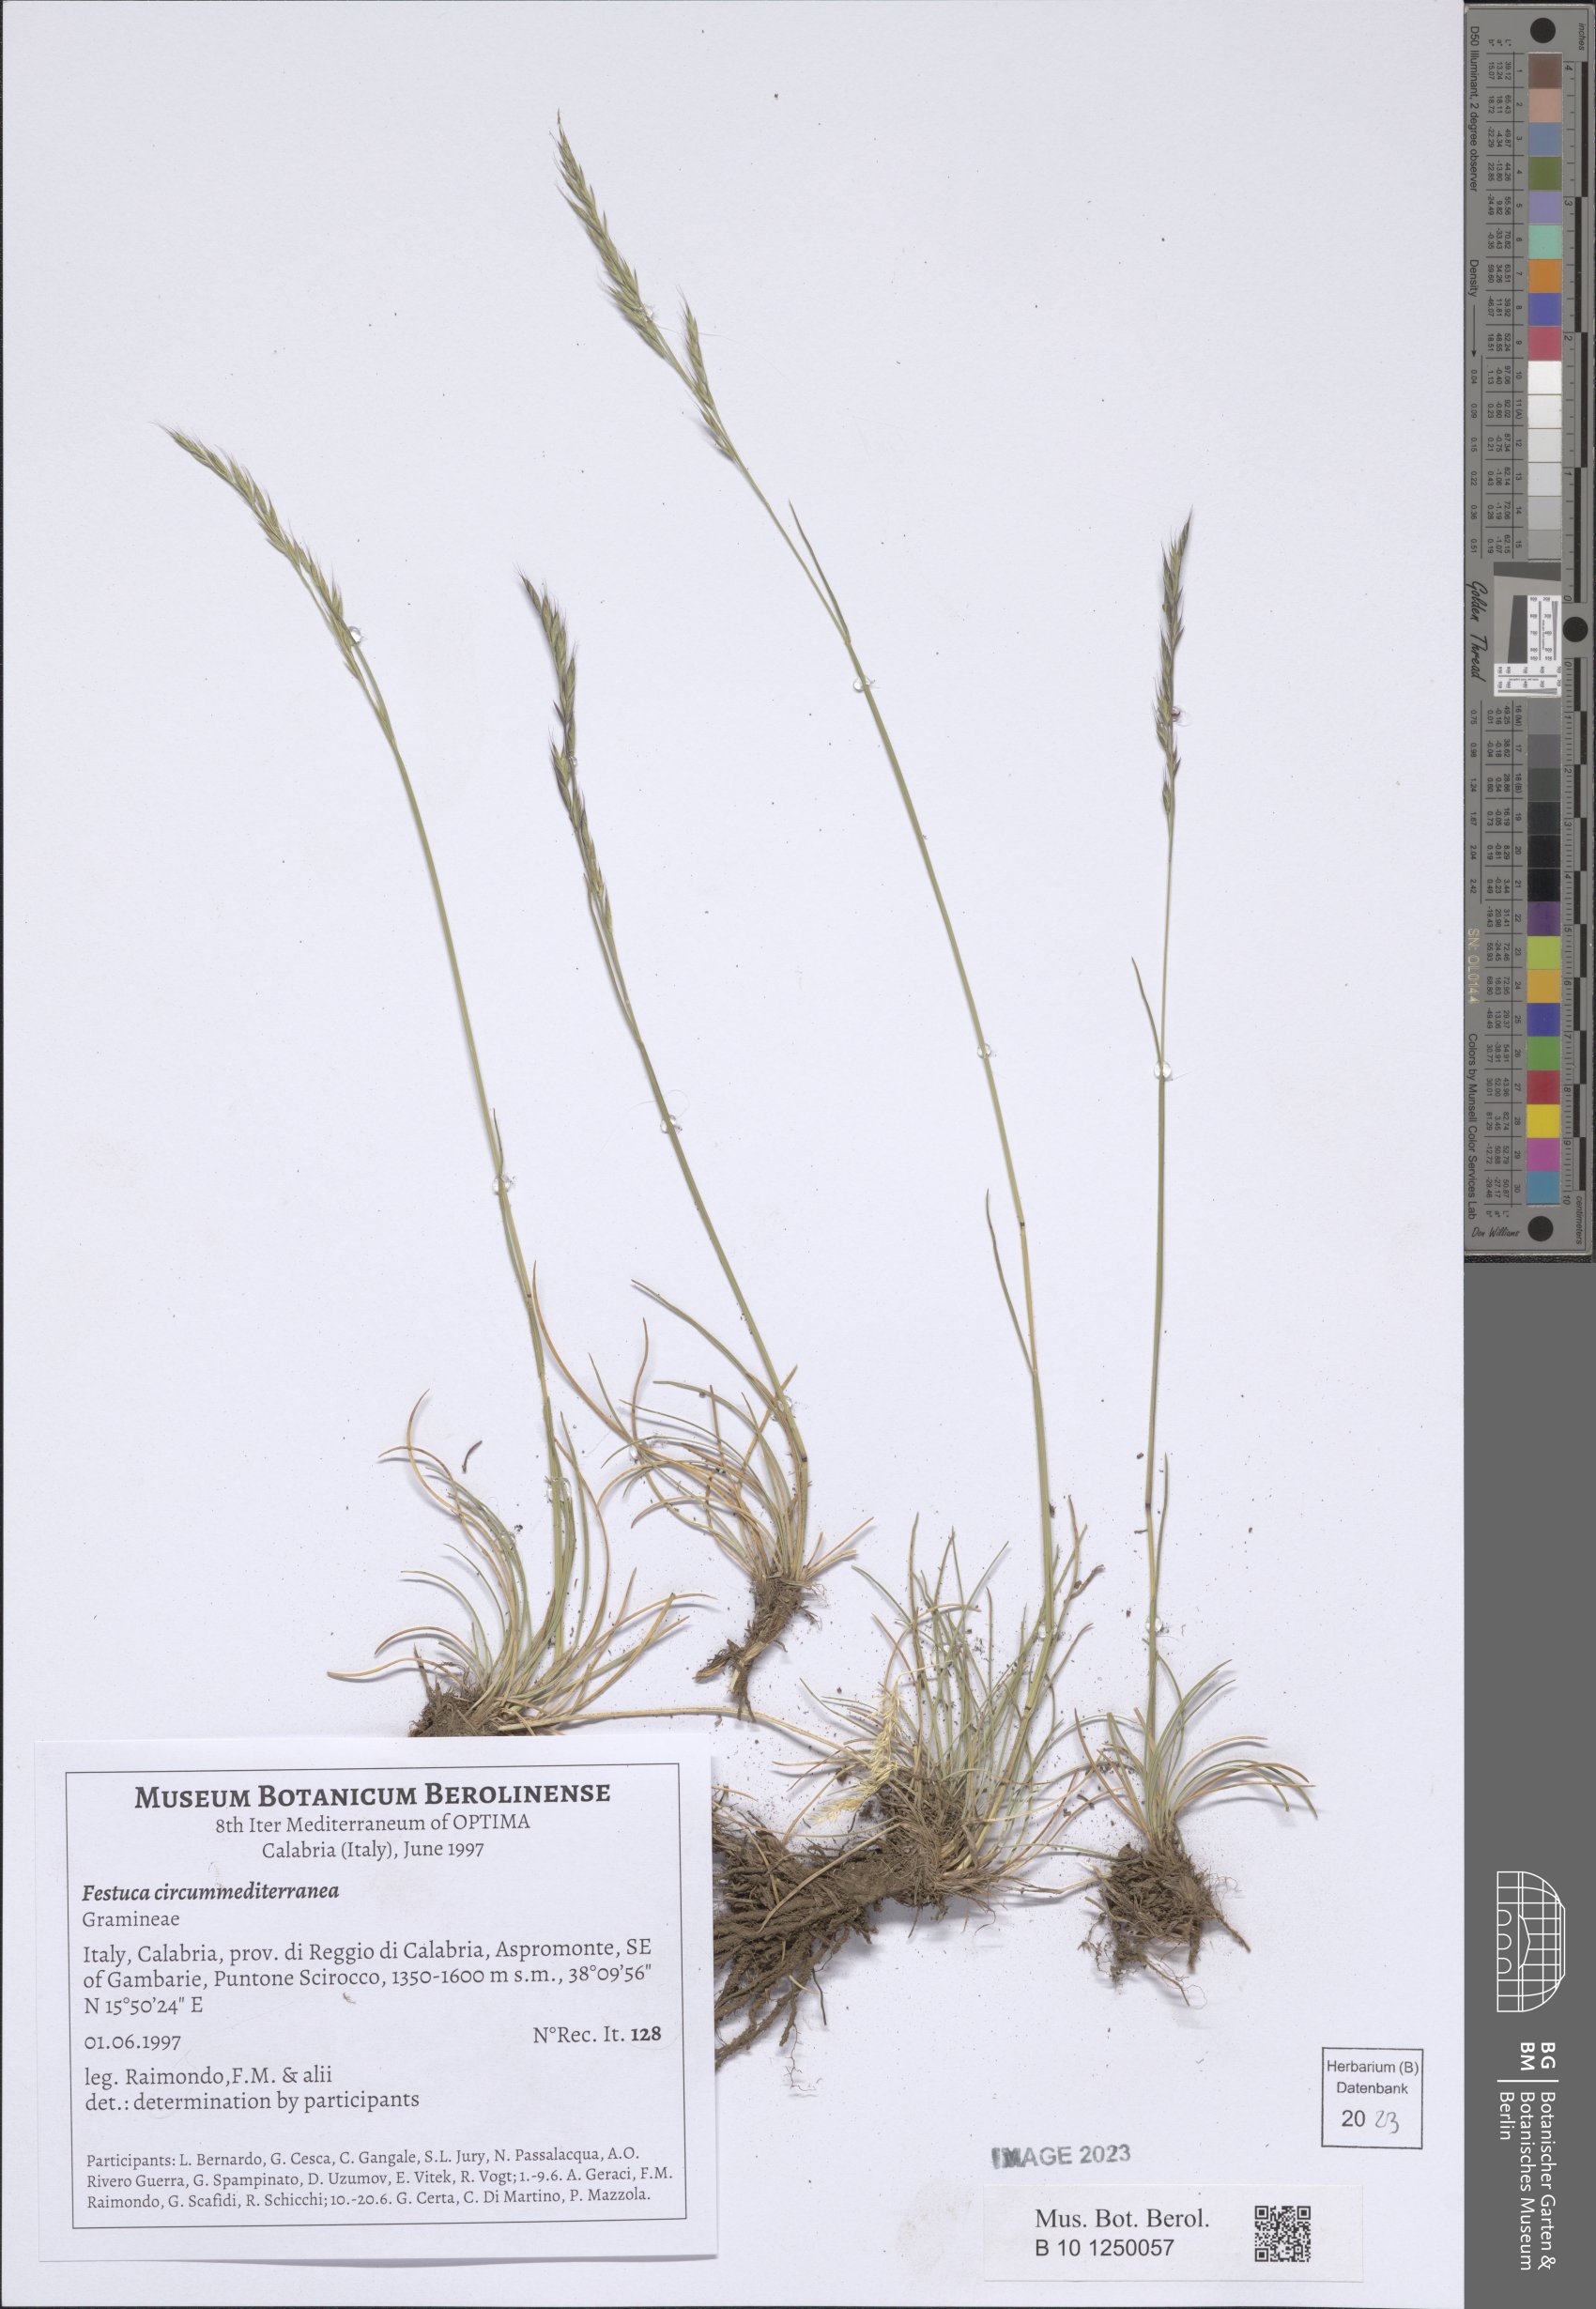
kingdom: Plantae
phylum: Tracheophyta
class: Liliopsida
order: Poales
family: Poaceae
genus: Festuca
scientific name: Festuca circummediterranea
